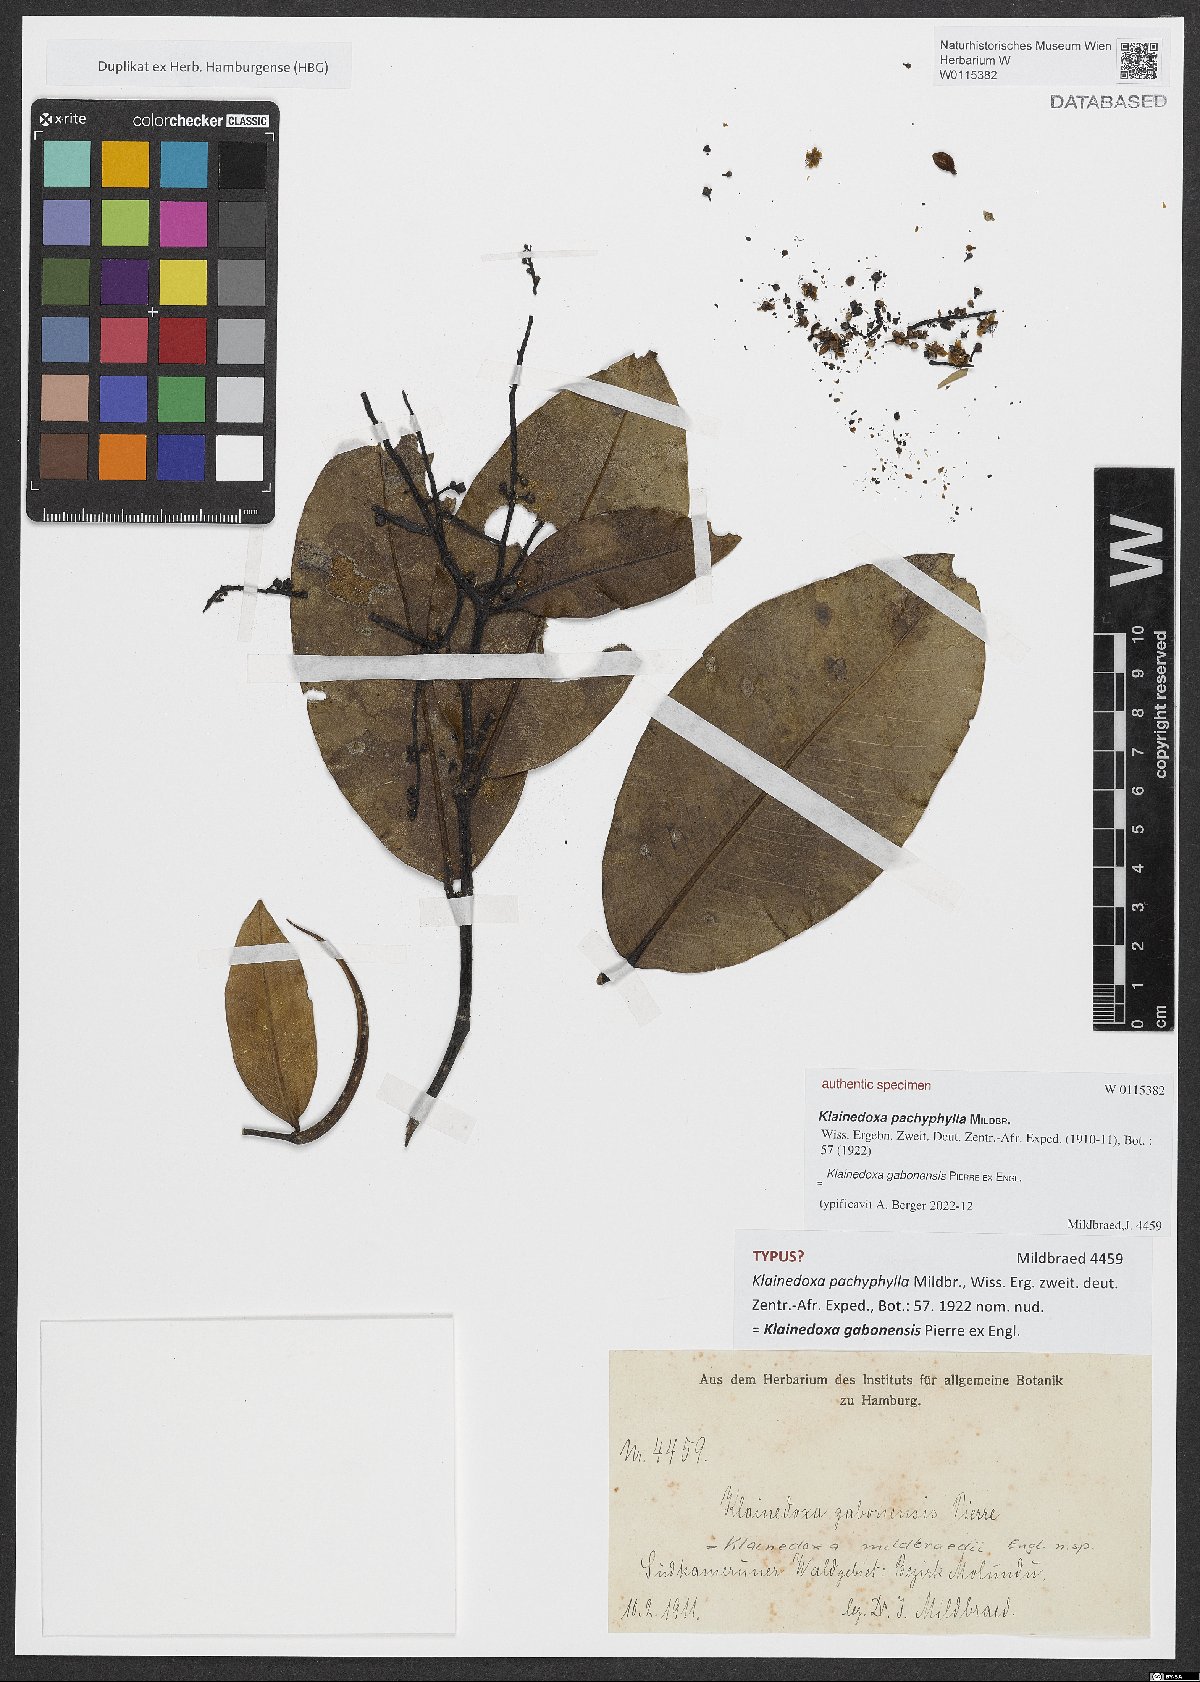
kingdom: Plantae
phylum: Tracheophyta
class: Magnoliopsida
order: Malpighiales
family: Irvingiaceae
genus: Klainedoxa
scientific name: Klainedoxa gabonensis
